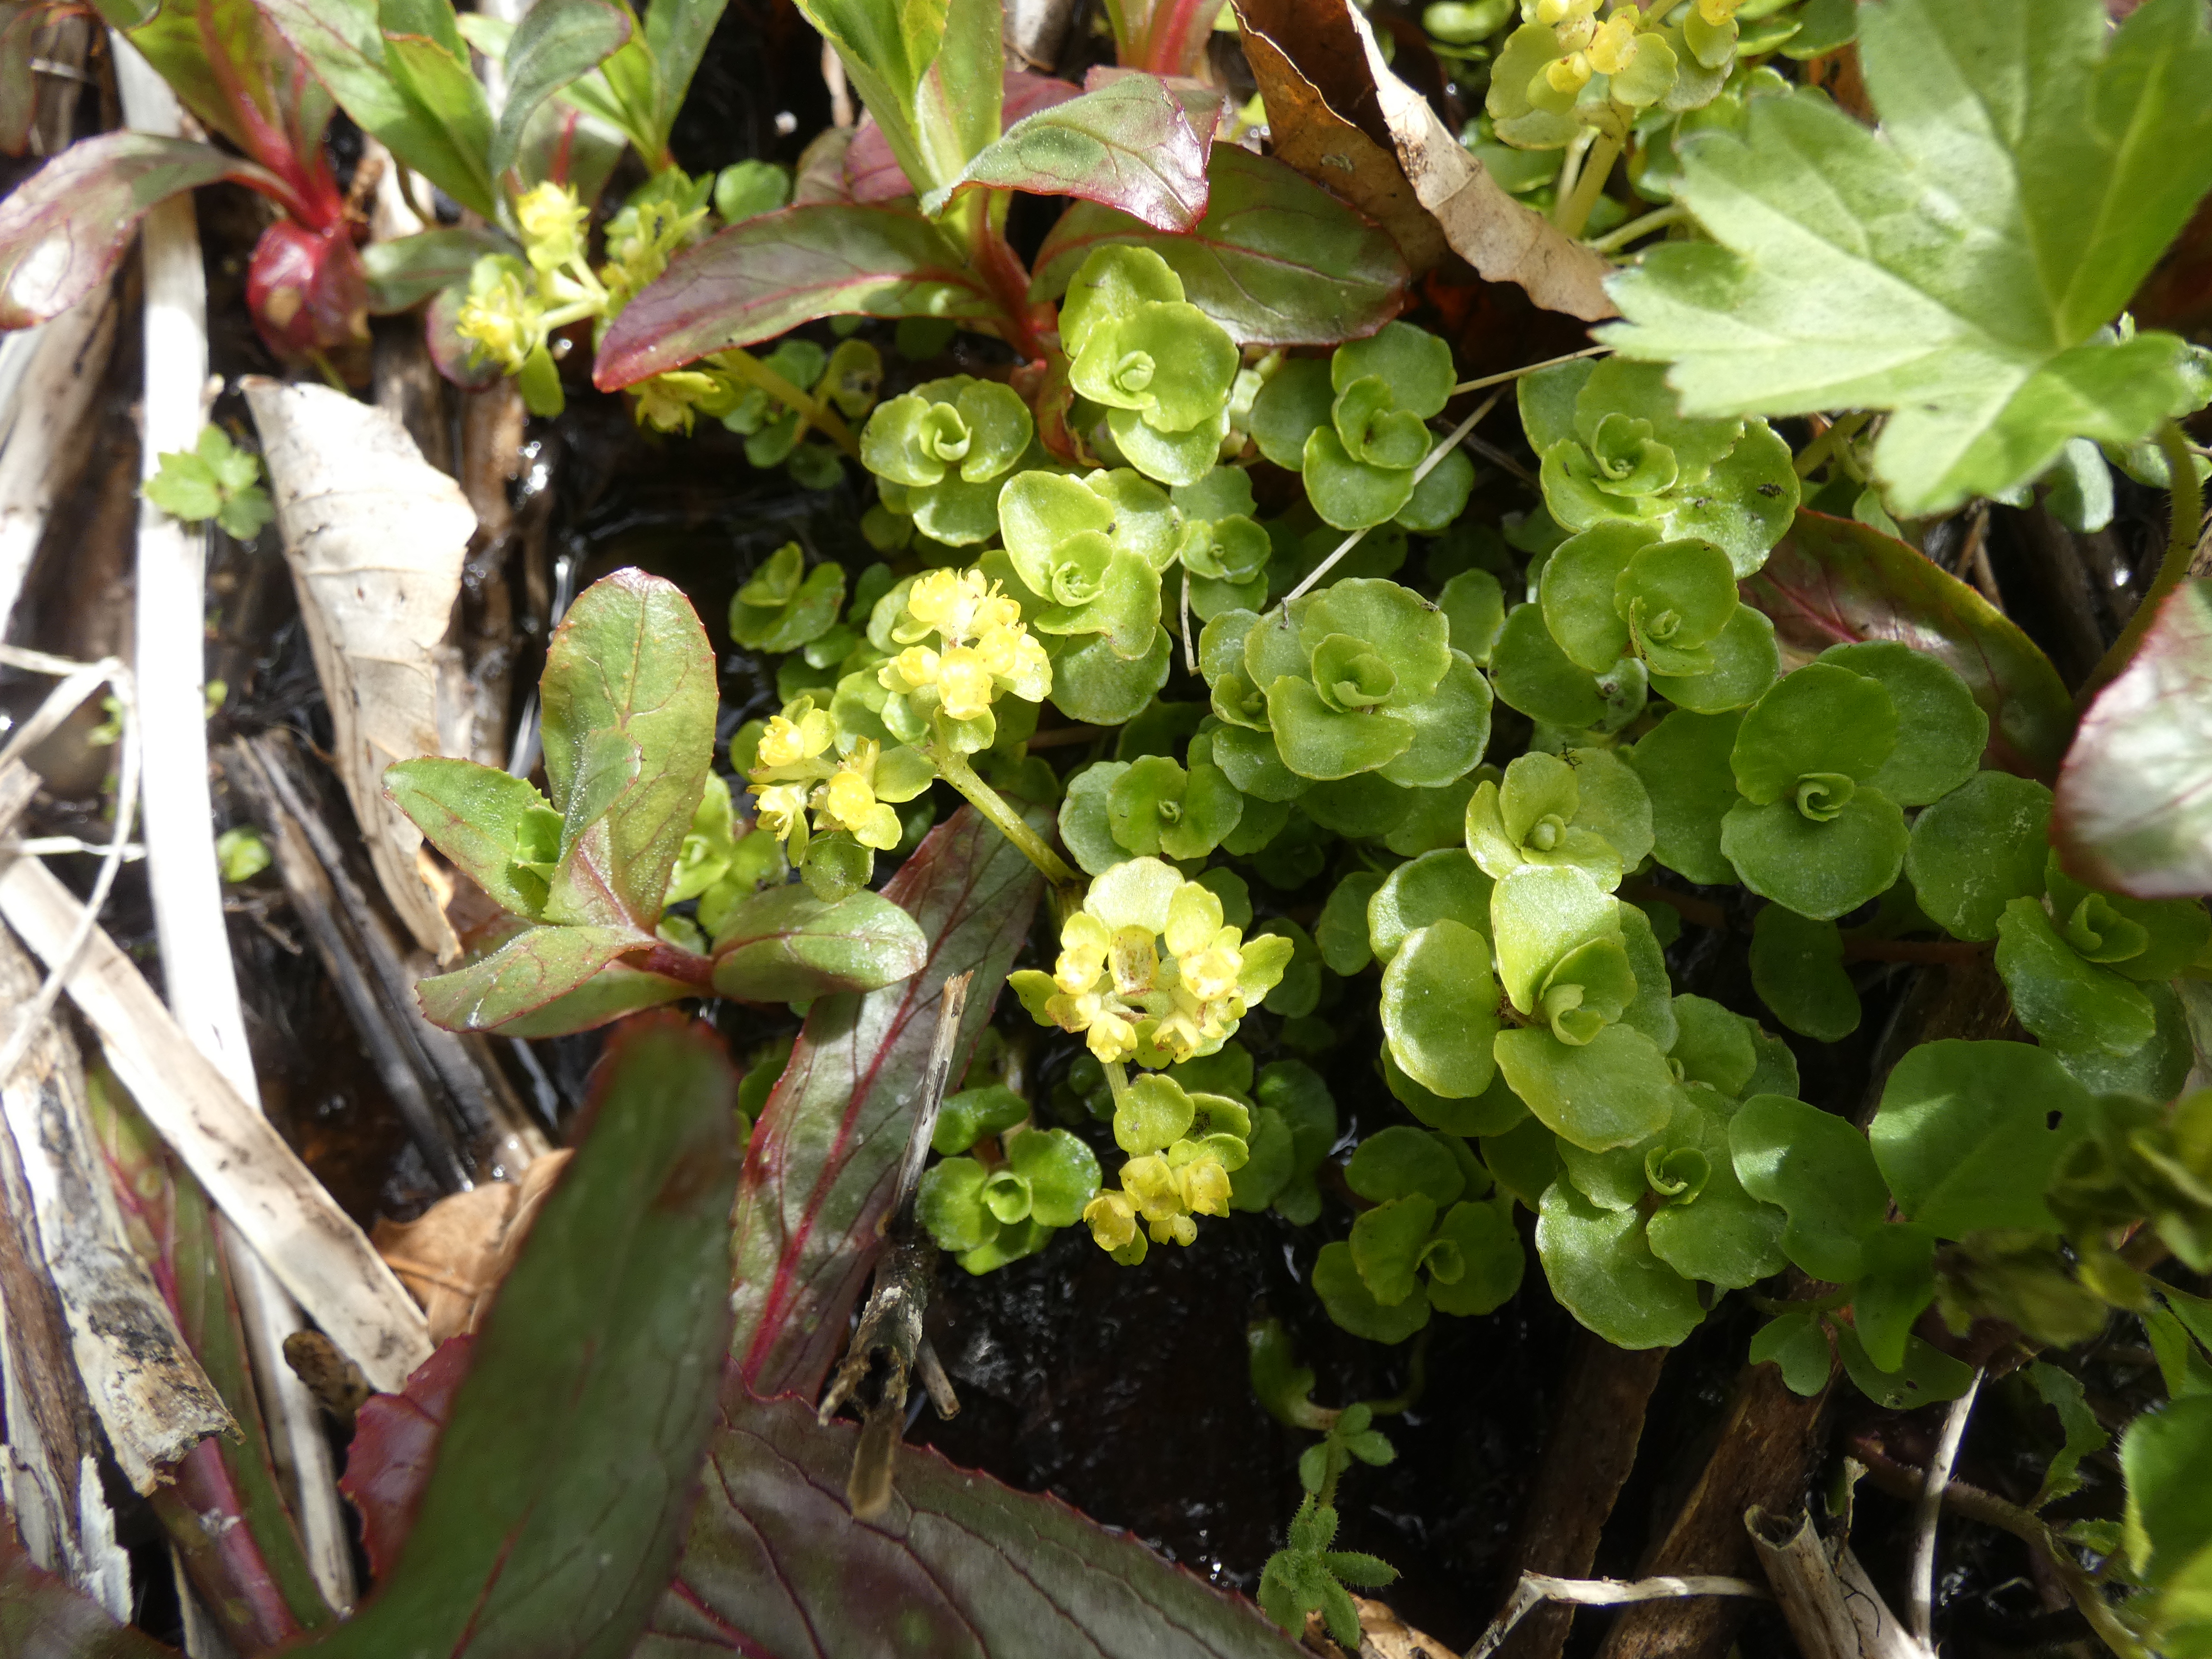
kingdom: Plantae
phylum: Tracheophyta
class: Magnoliopsida
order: Saxifragales
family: Saxifragaceae
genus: Chrysosplenium
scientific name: Chrysosplenium oppositifolium
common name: Småbladet milturt
